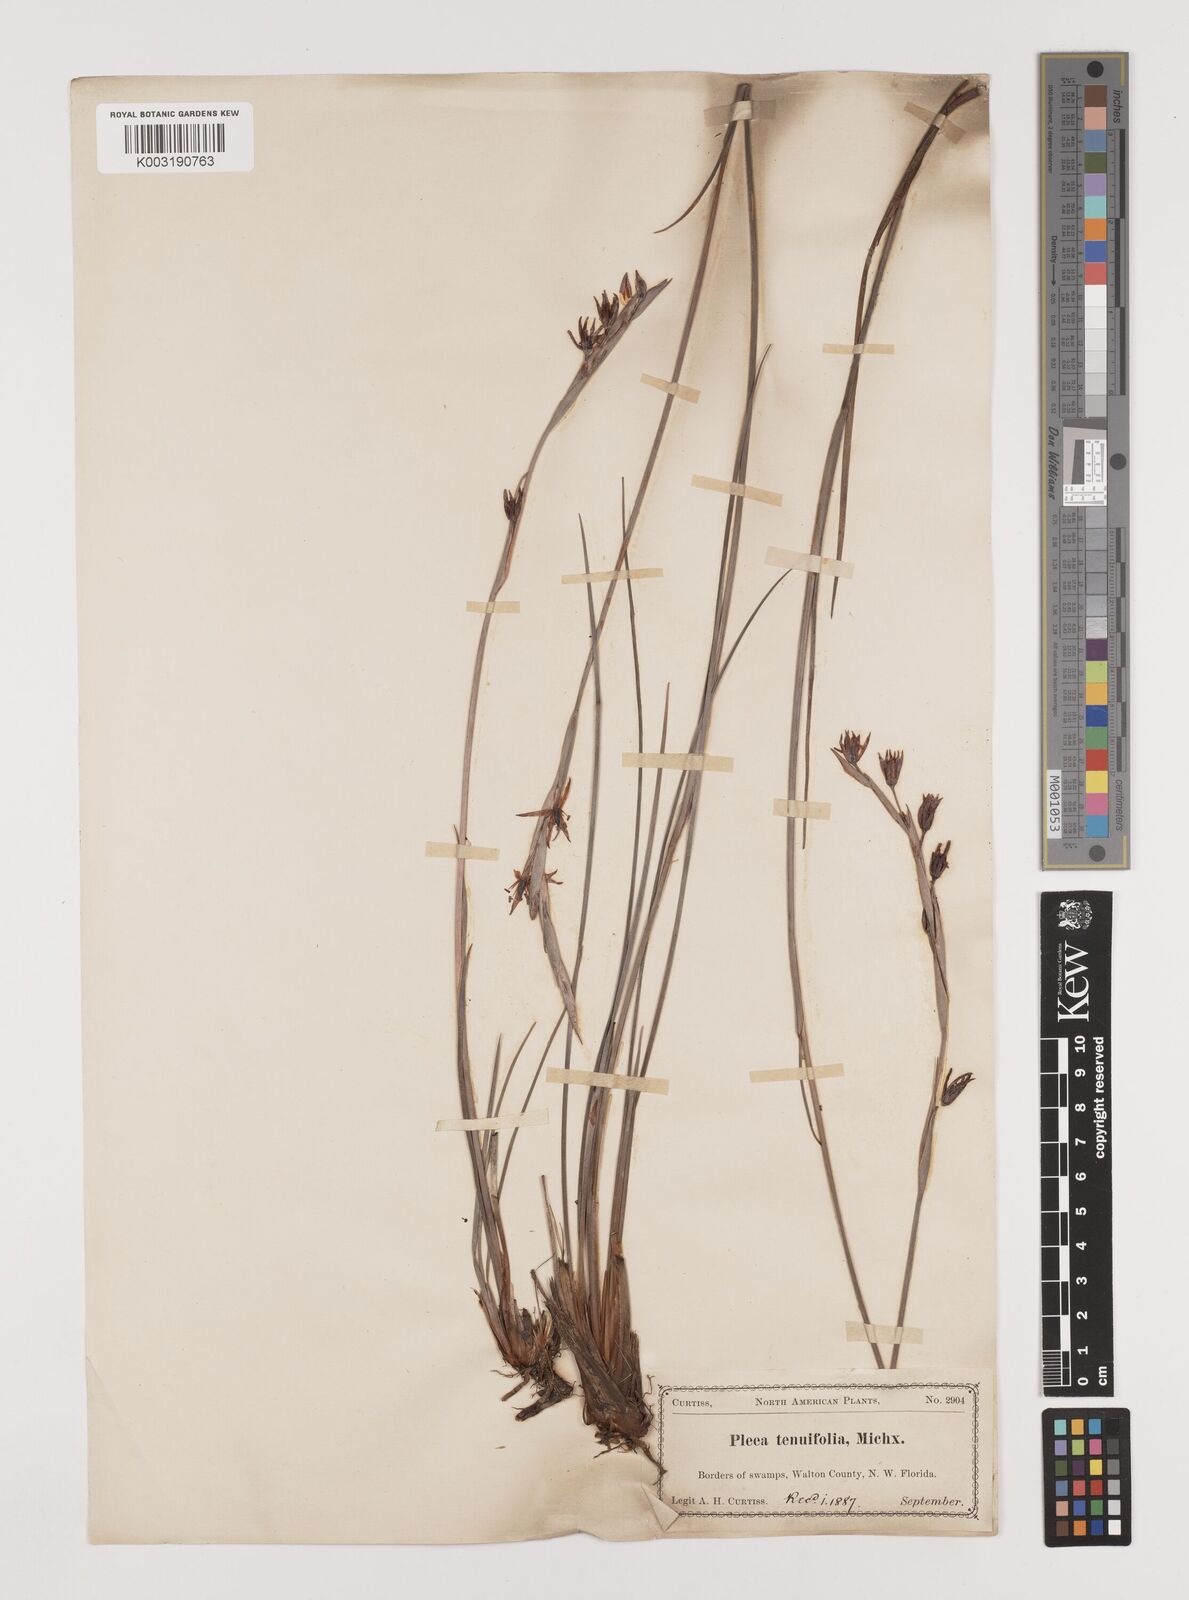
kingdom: Plantae
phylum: Tracheophyta
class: Liliopsida
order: Alismatales
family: Tofieldiaceae
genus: Pleea
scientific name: Pleea tenuifolia
